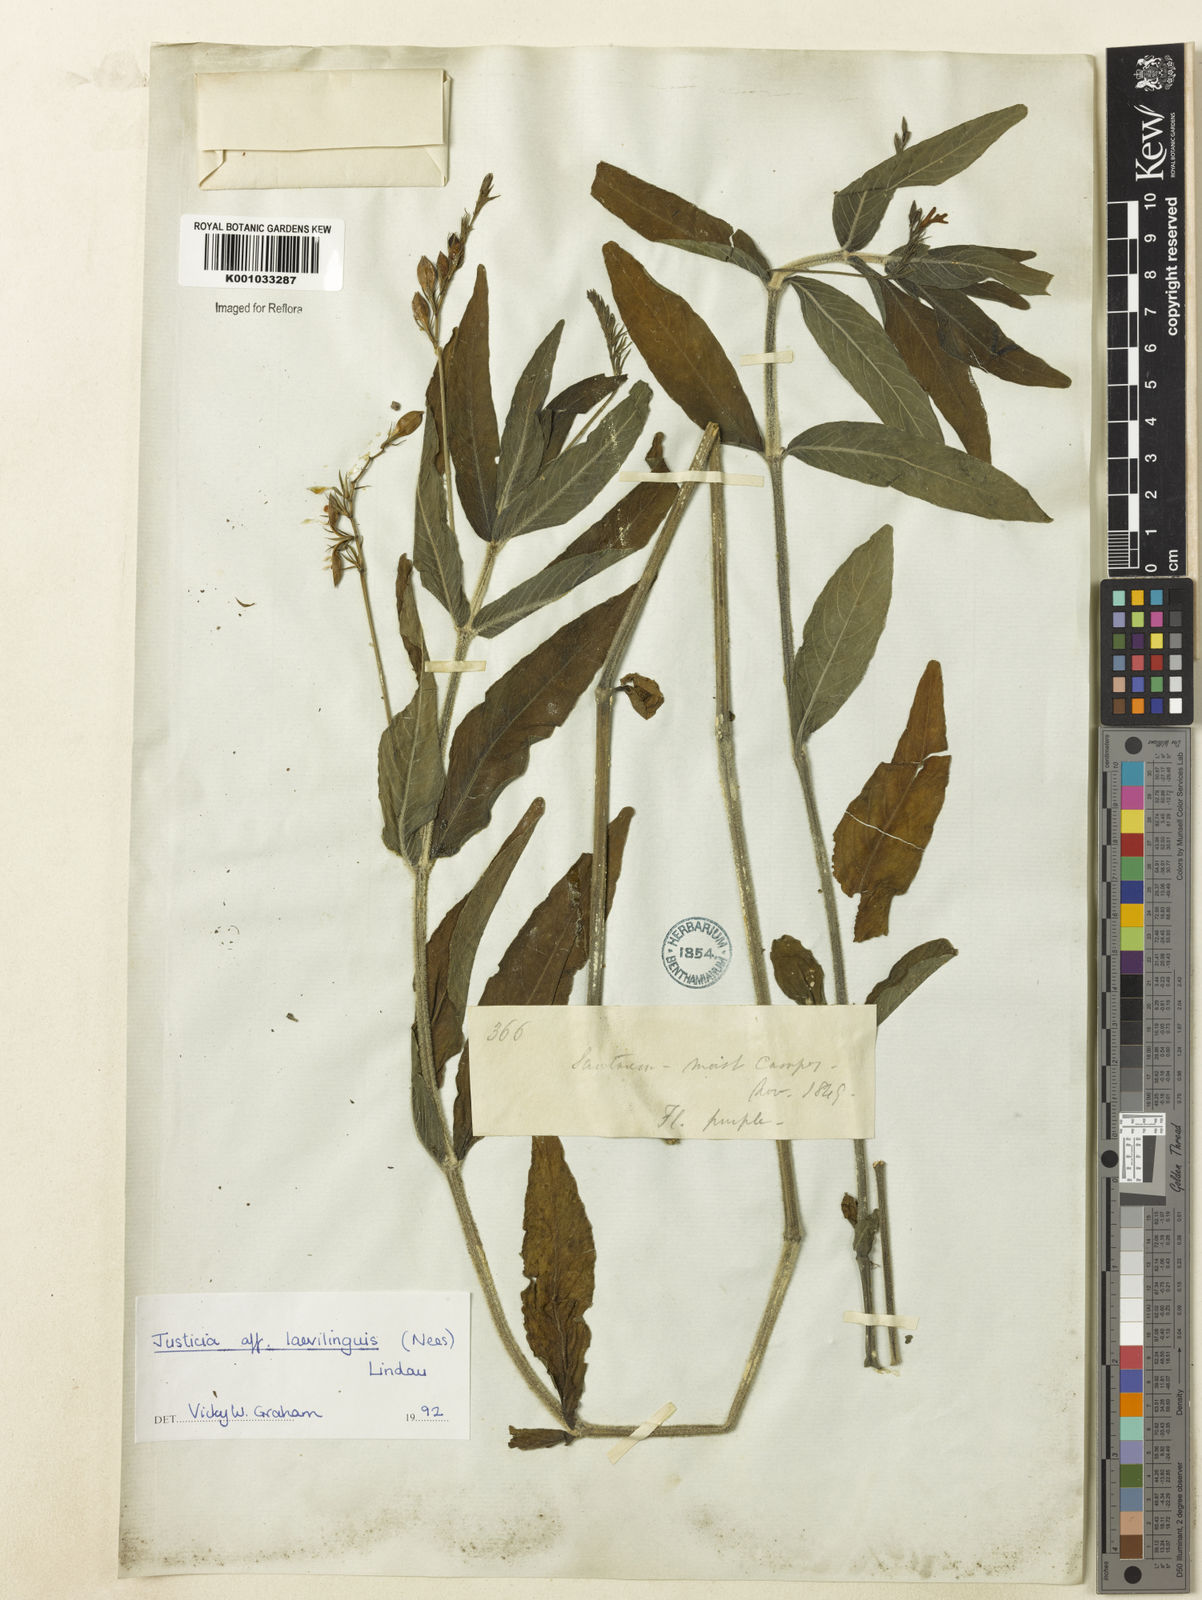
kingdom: Plantae
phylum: Tracheophyta
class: Magnoliopsida
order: Lamiales
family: Acanthaceae
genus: Dianthera
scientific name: Dianthera laevilinguis
